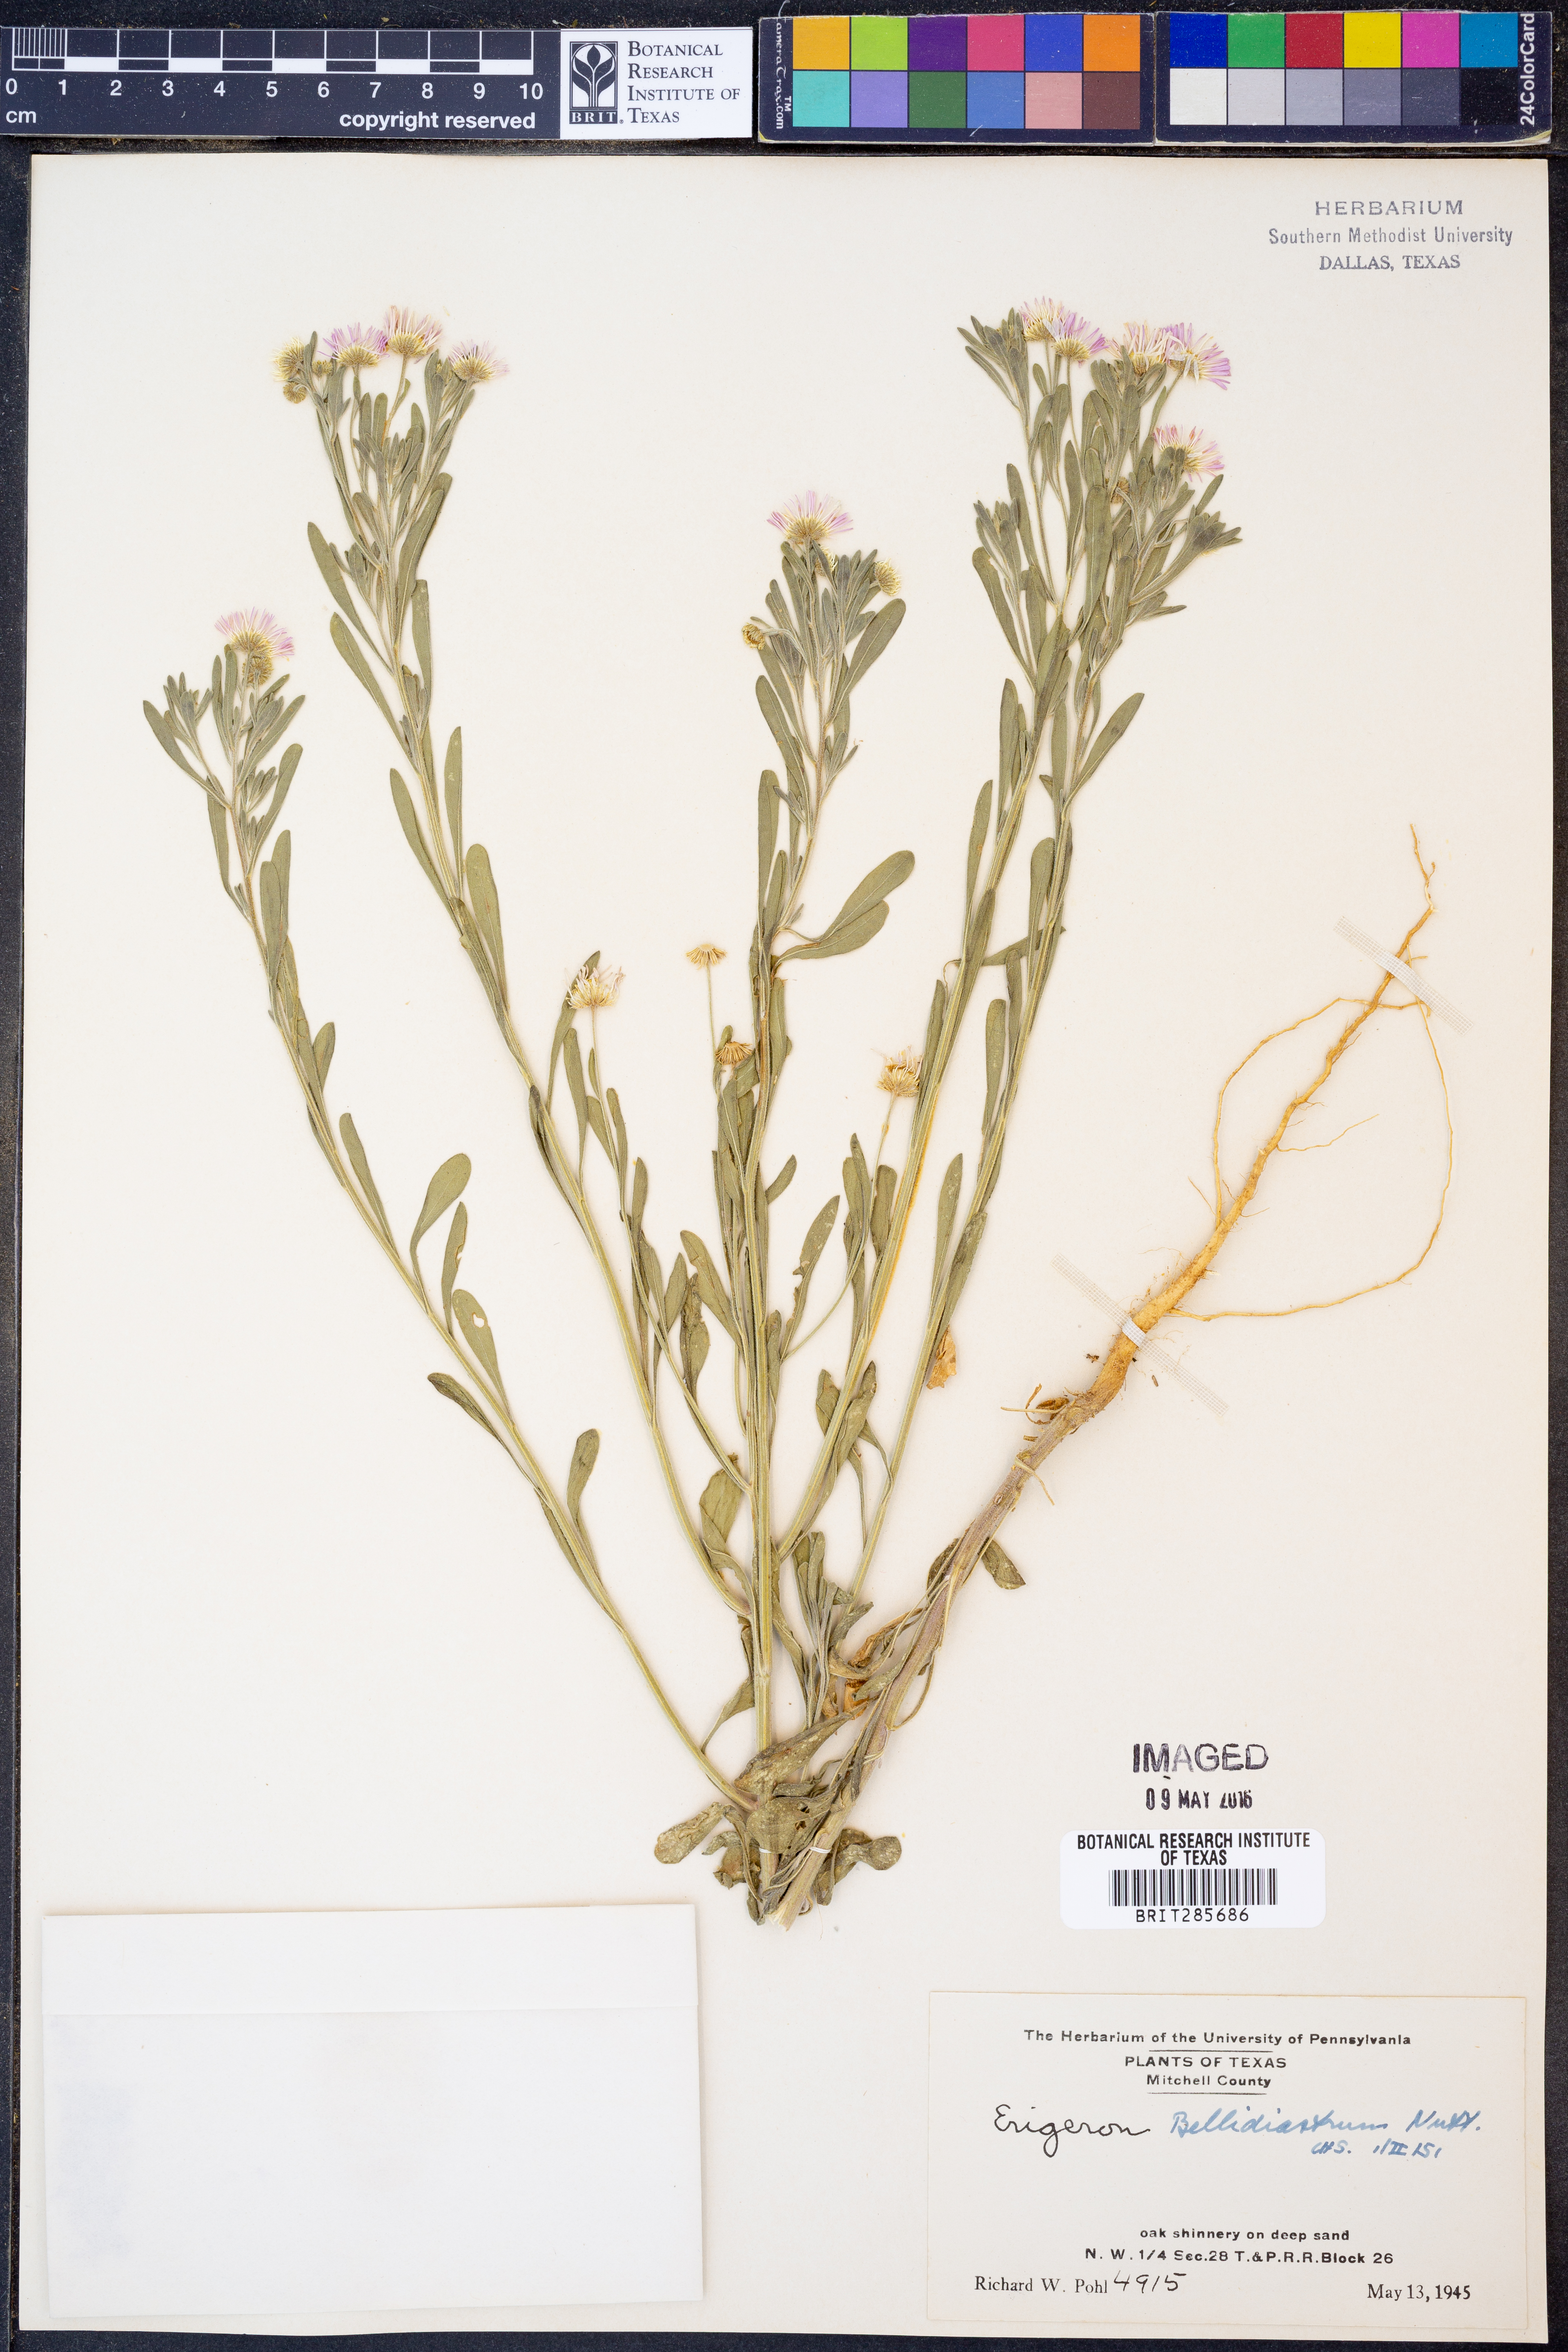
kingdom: Plantae
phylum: Tracheophyta
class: Magnoliopsida
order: Asterales
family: Asteraceae
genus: Erigeron
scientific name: Erigeron bellidiastrum
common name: Sand fleabane
